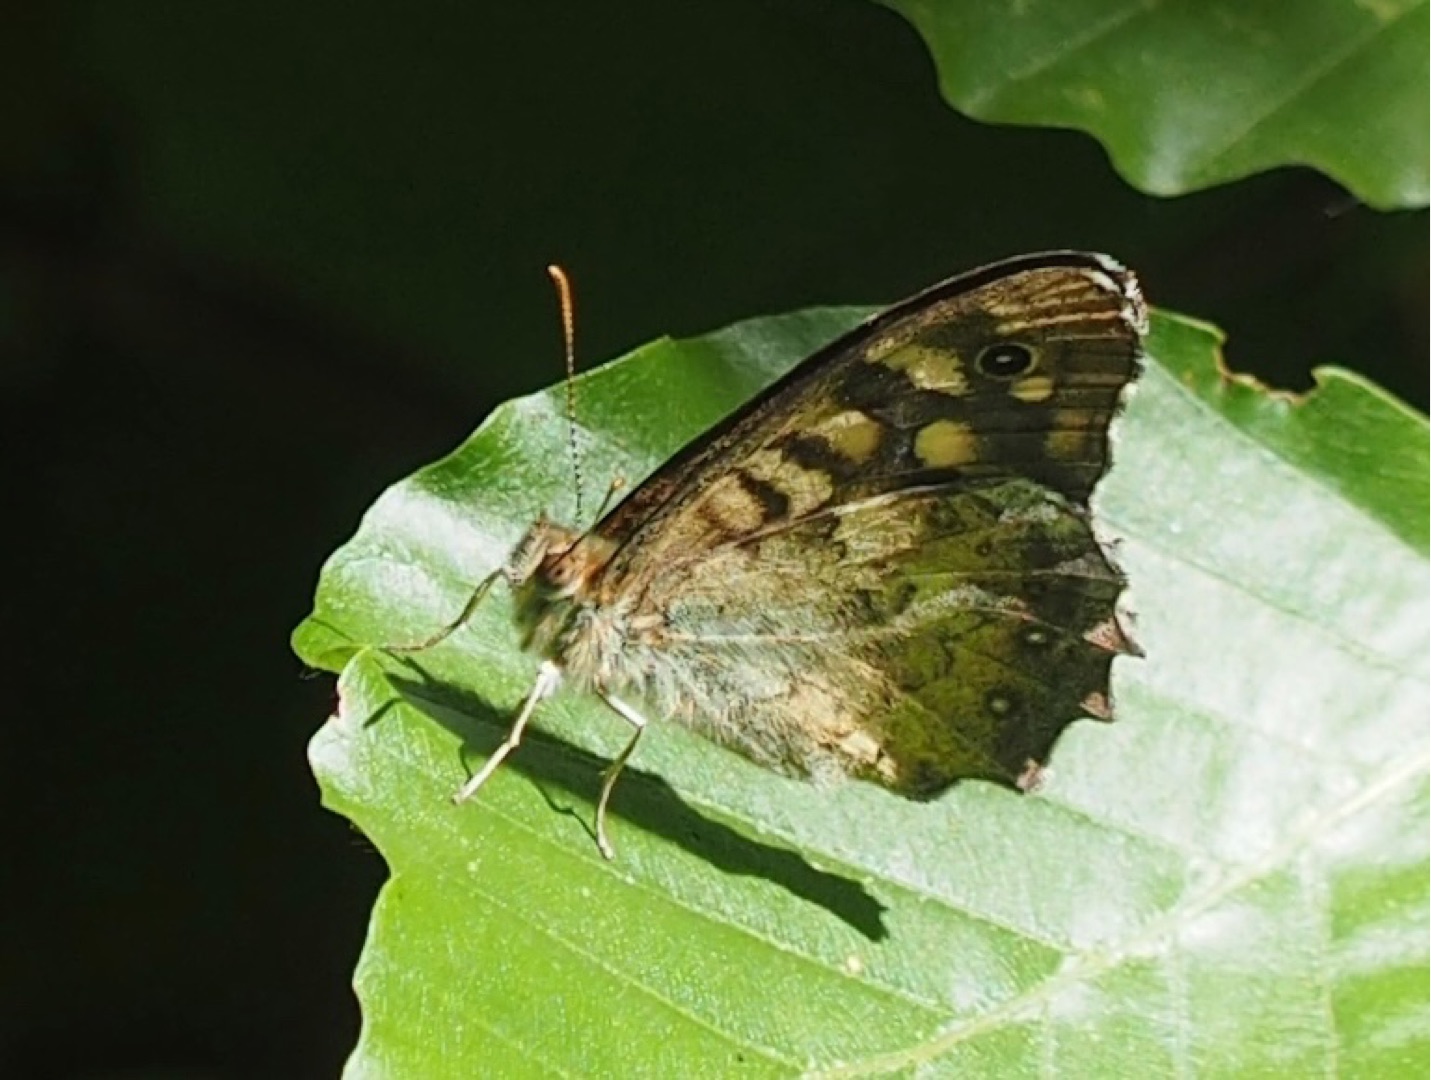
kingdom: Animalia
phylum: Arthropoda
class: Insecta
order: Lepidoptera
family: Nymphalidae
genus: Pararge
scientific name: Pararge aegeria
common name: Skovrandøje
